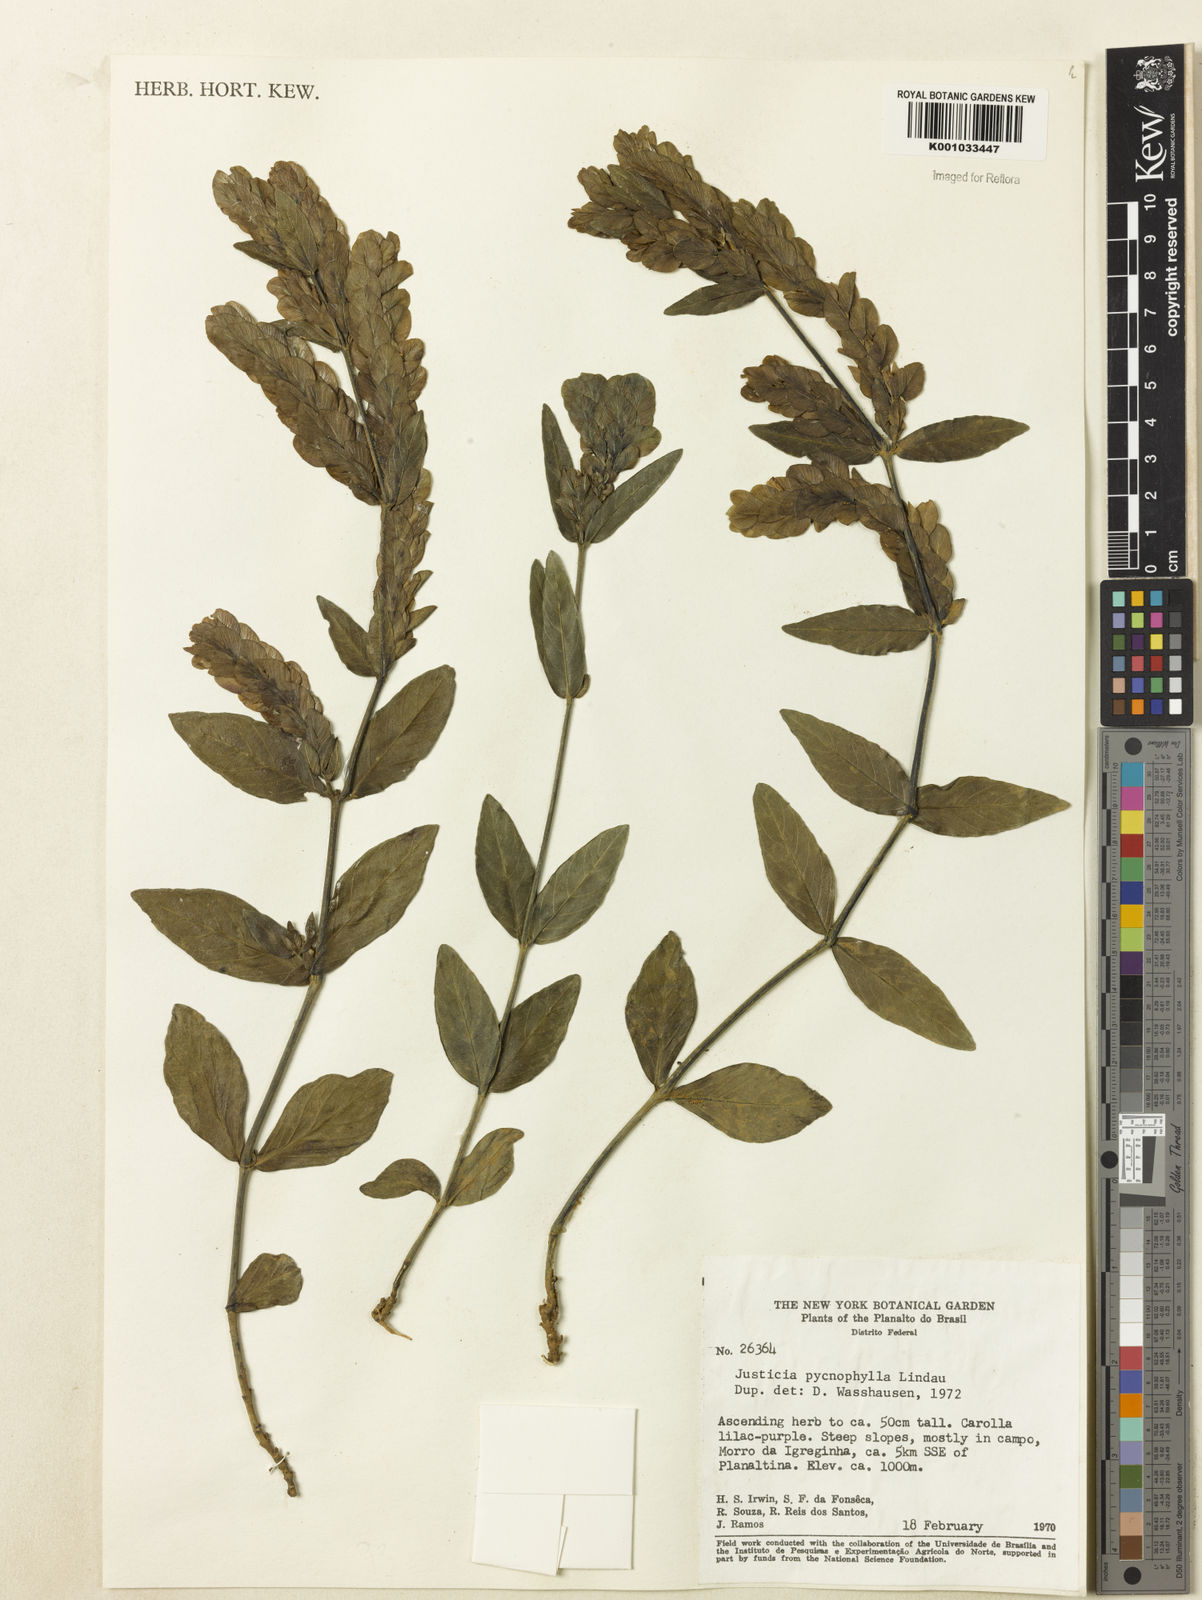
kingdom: Plantae
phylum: Tracheophyta
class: Magnoliopsida
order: Lamiales
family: Acanthaceae
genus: Justicia
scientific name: Justicia pycnophylla
